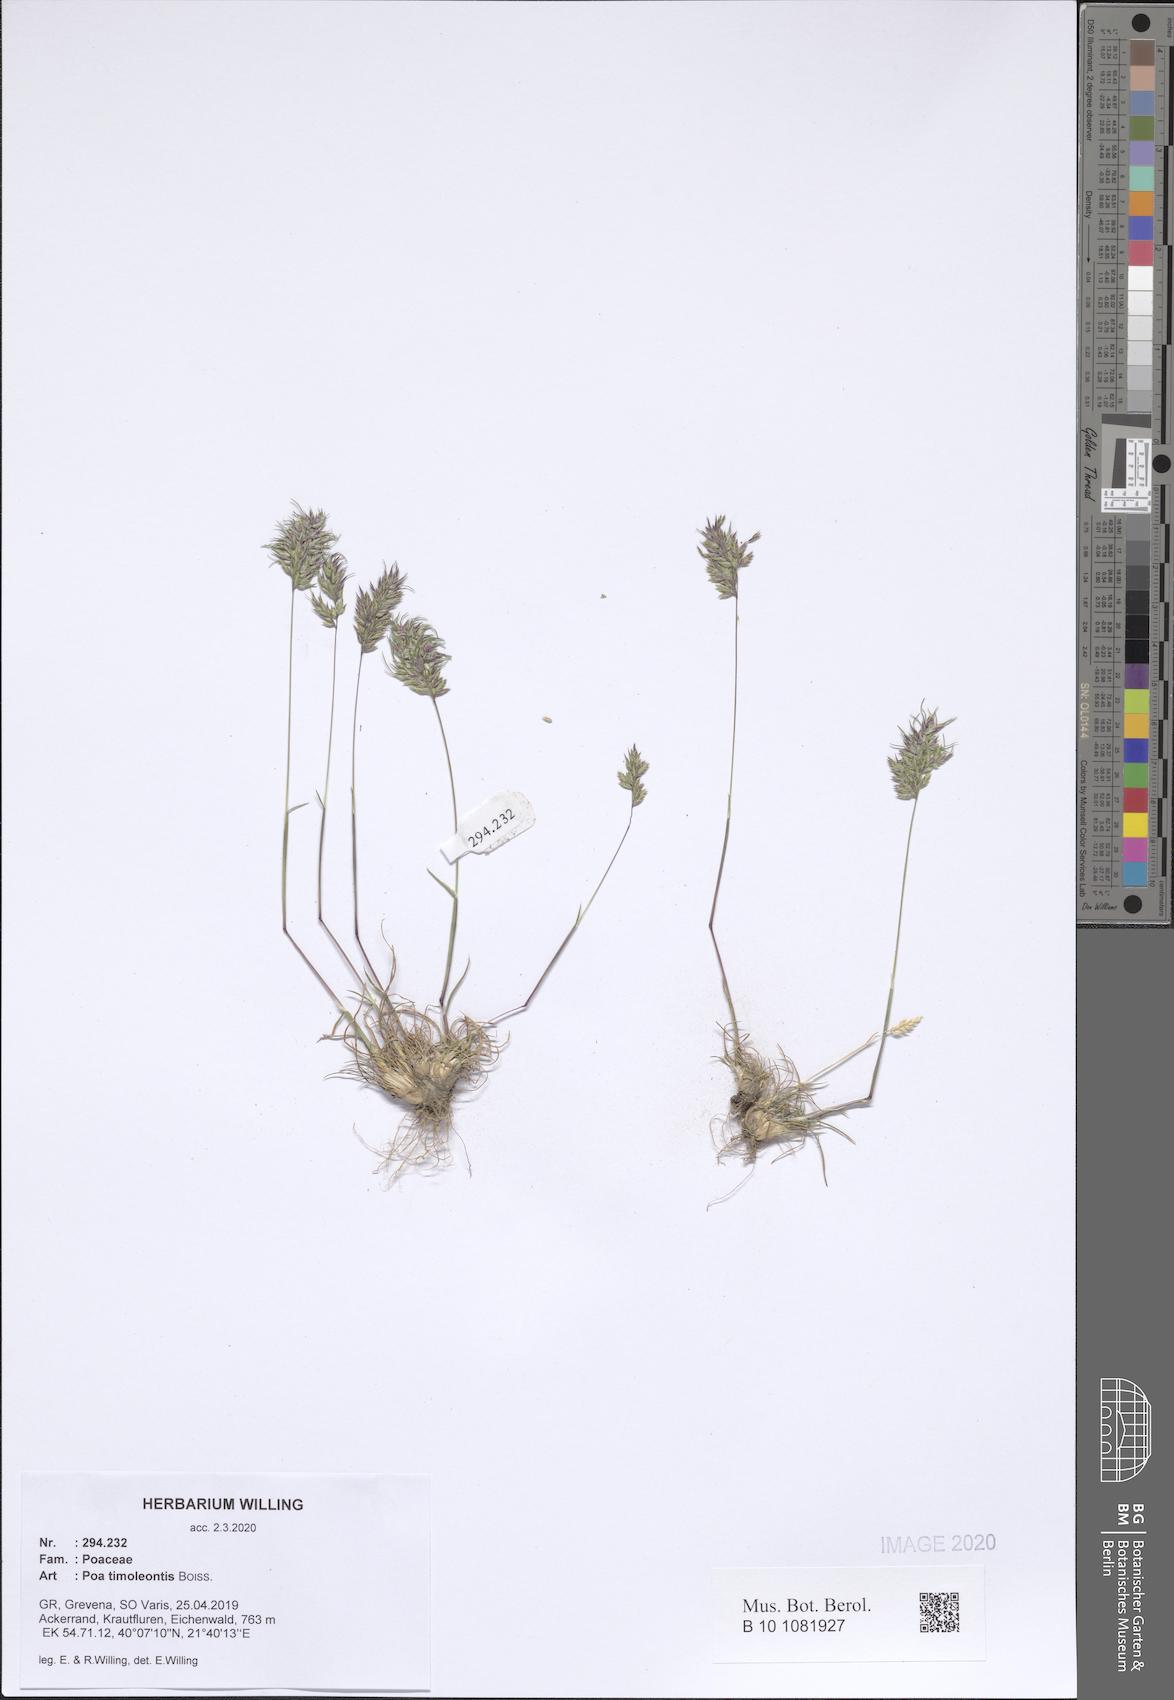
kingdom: Plantae
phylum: Tracheophyta
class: Liliopsida
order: Poales
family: Poaceae
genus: Poa
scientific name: Poa timoleontis
